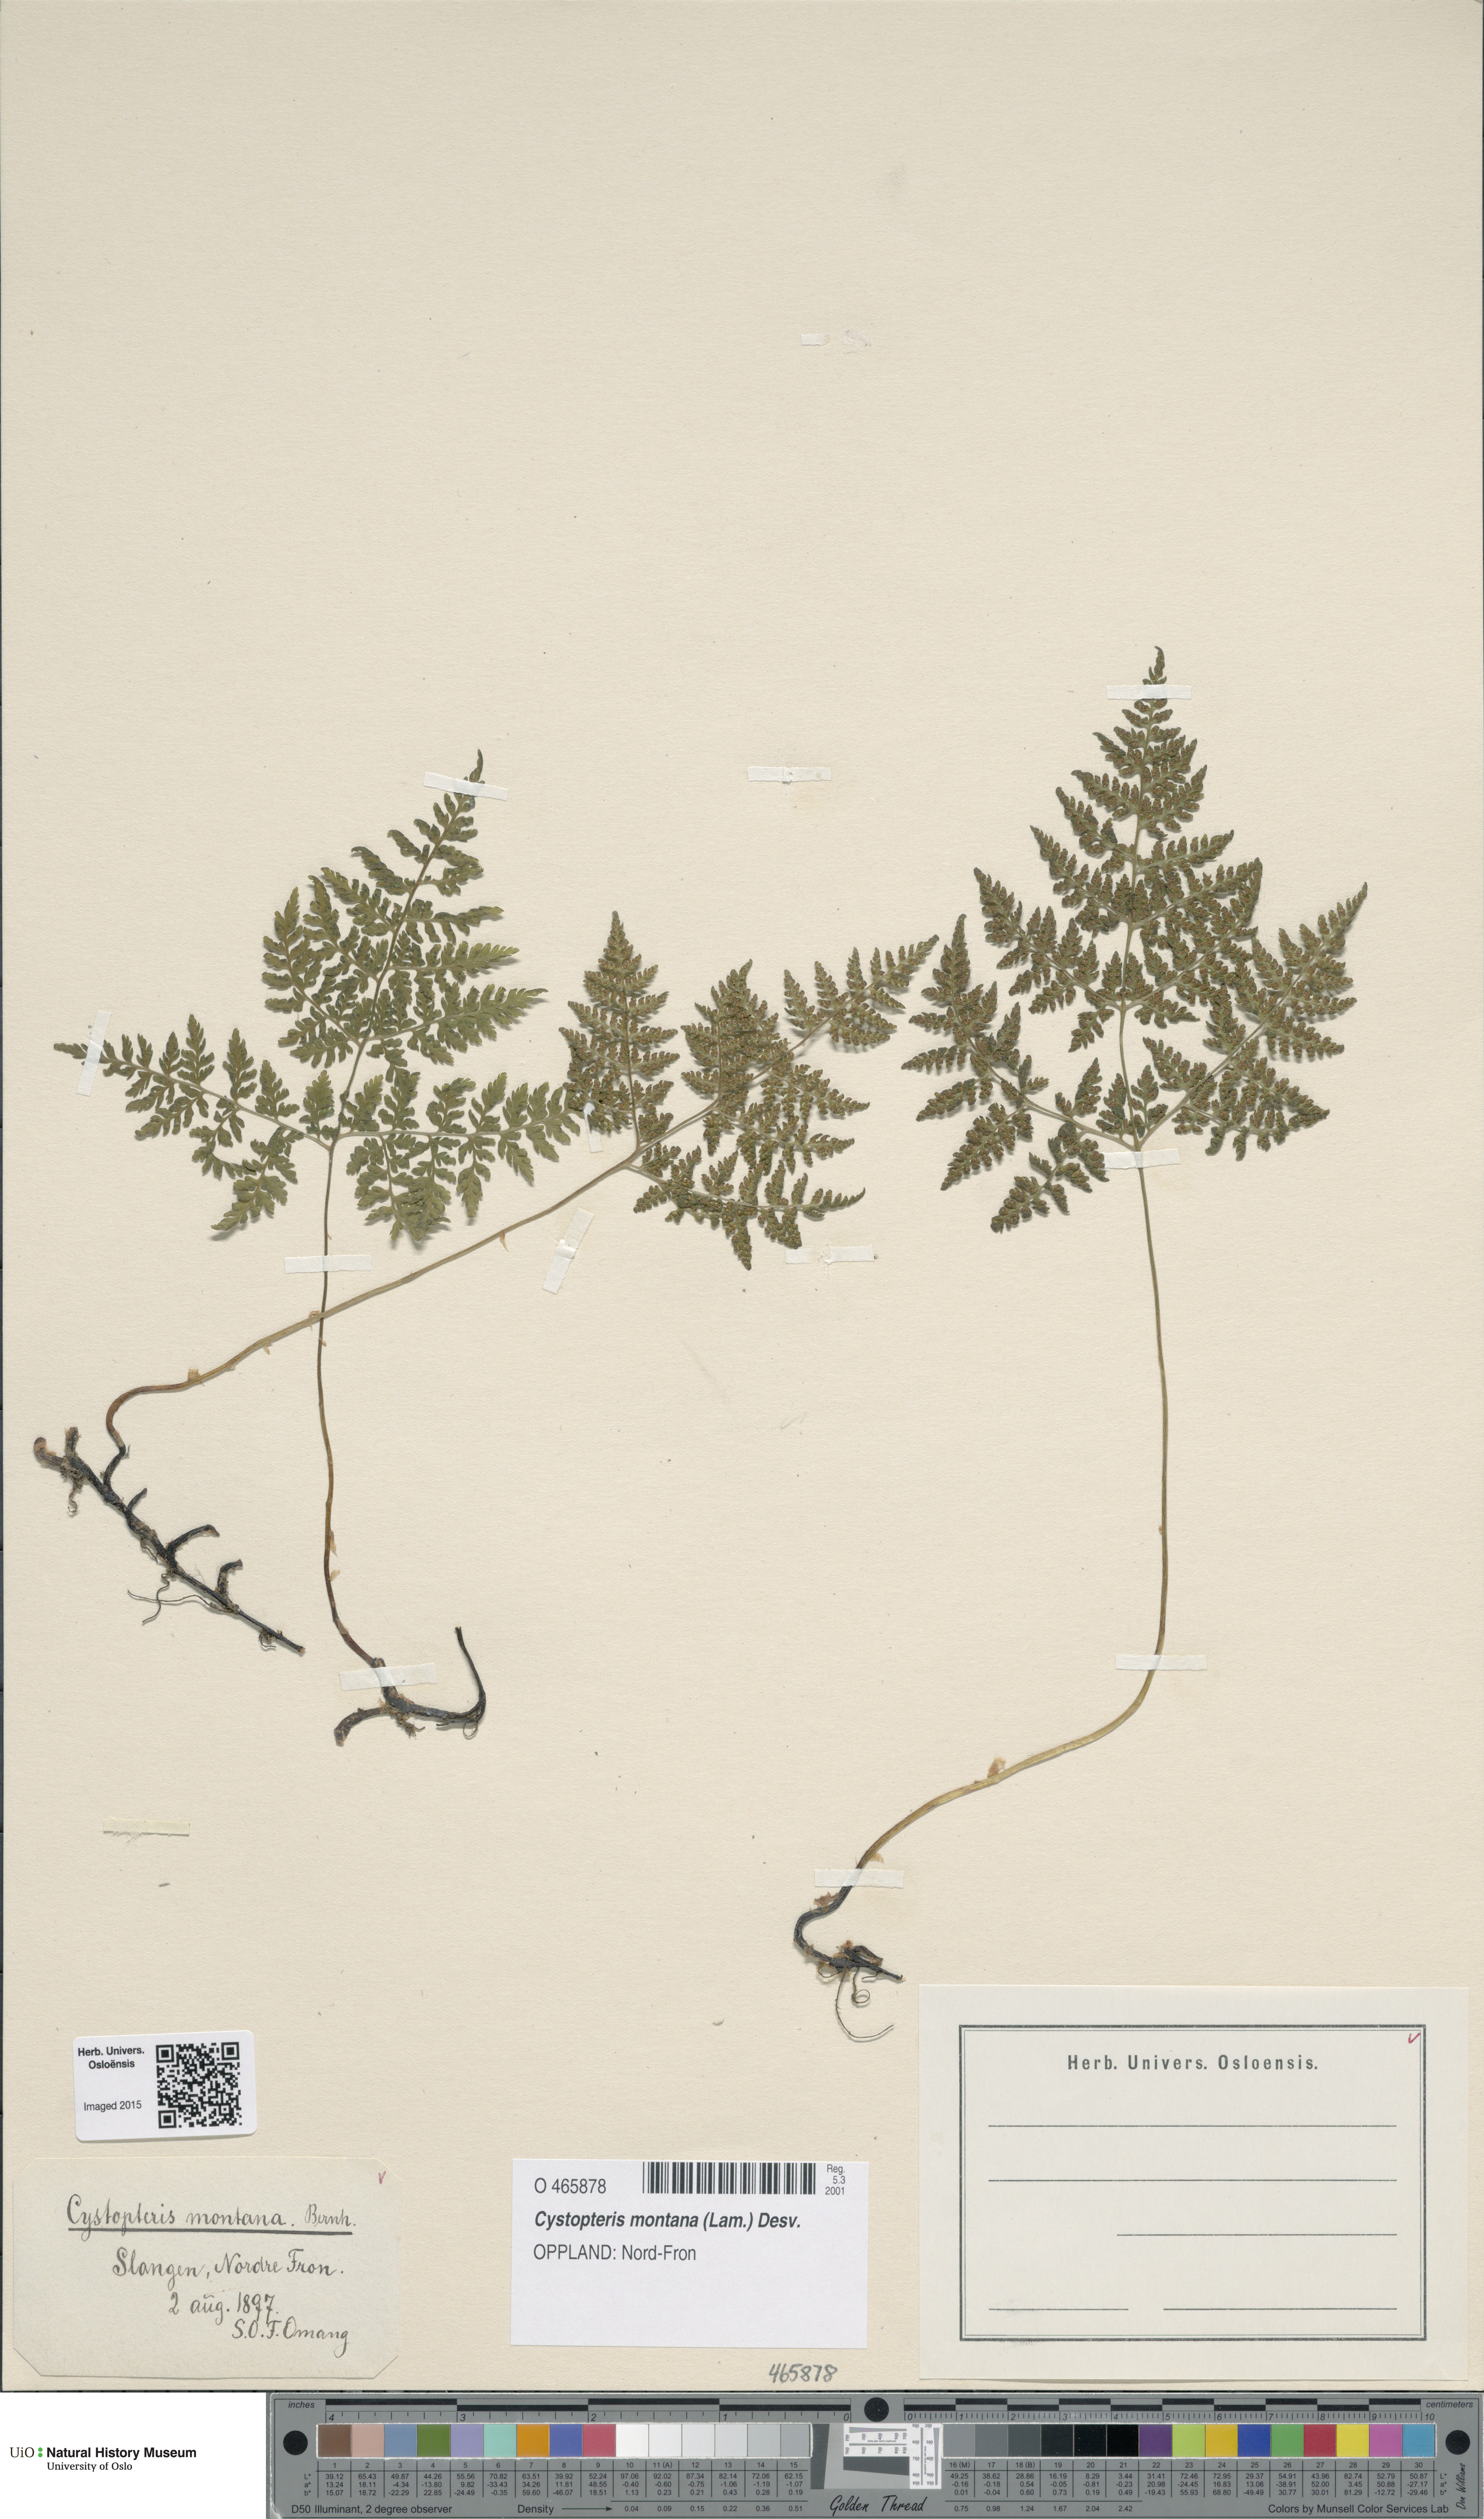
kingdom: Plantae
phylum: Tracheophyta
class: Polypodiopsida
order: Polypodiales
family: Cystopteridaceae
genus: Cystopteris
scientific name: Cystopteris montana
